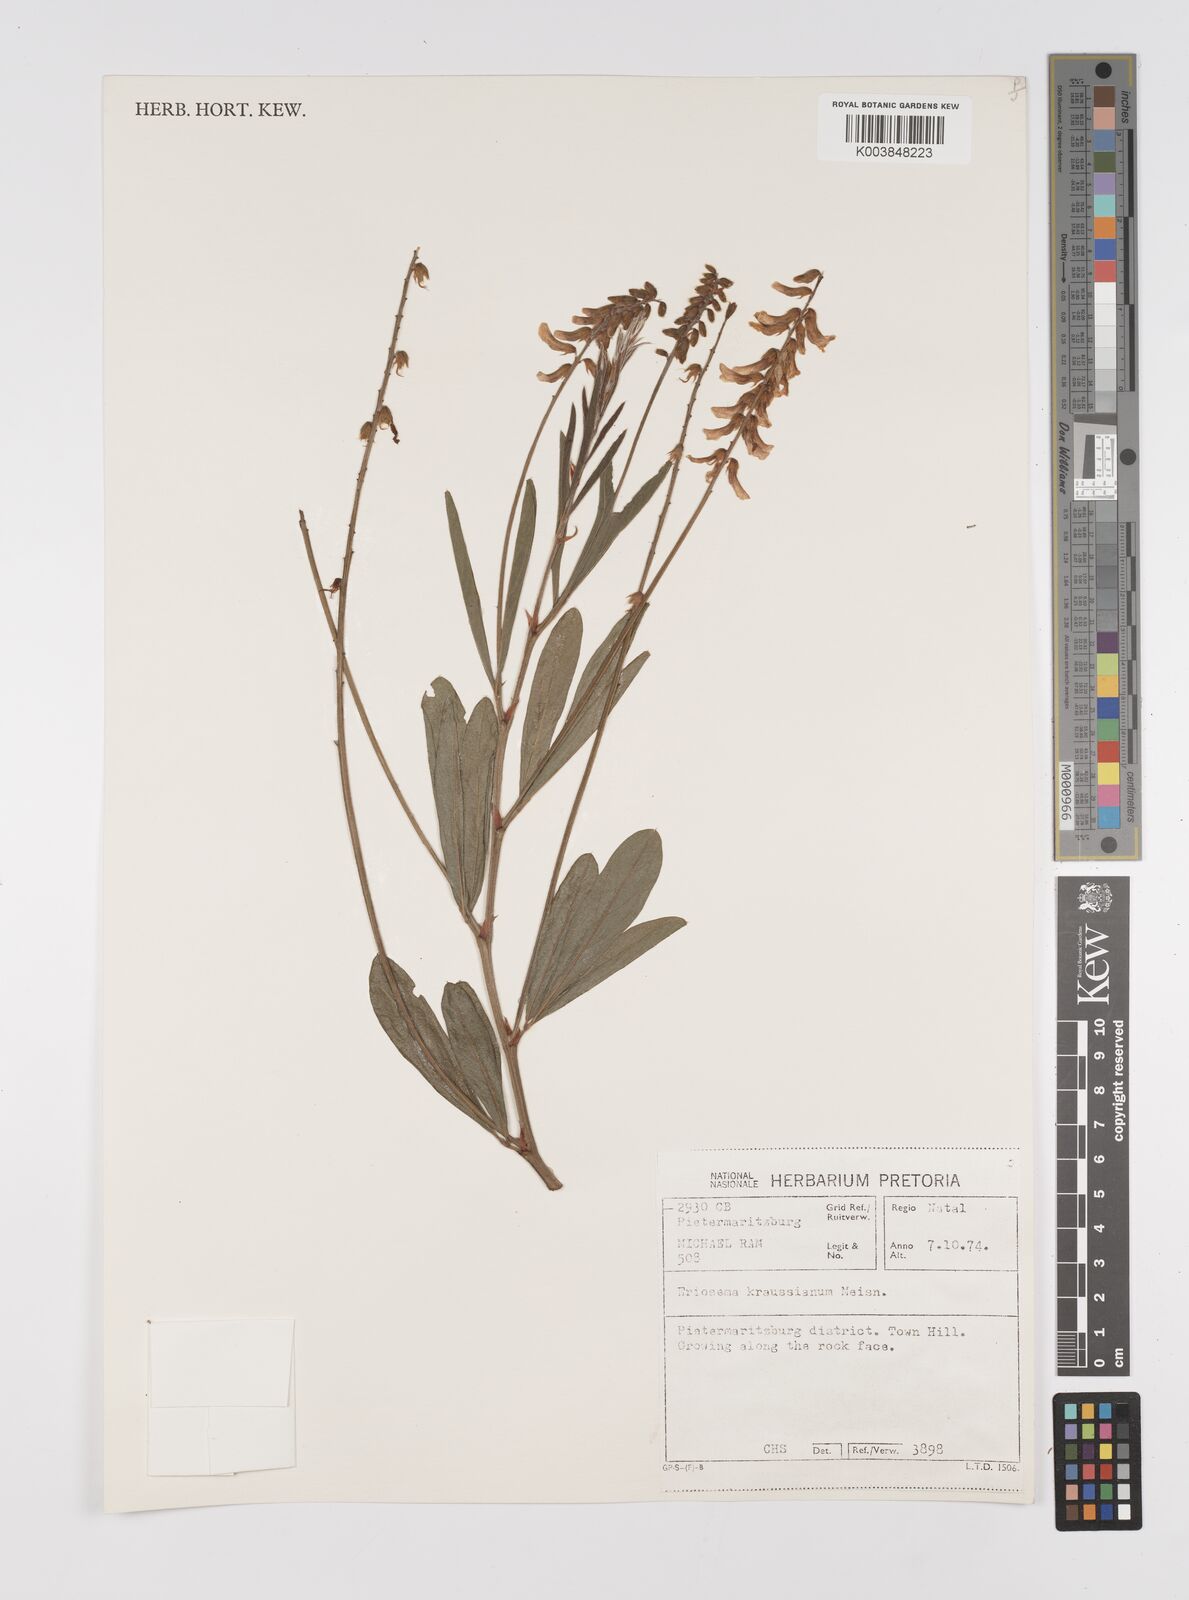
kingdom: Plantae
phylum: Tracheophyta
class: Magnoliopsida
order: Fabales
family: Fabaceae
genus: Eriosema
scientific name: Eriosema kraussianum
